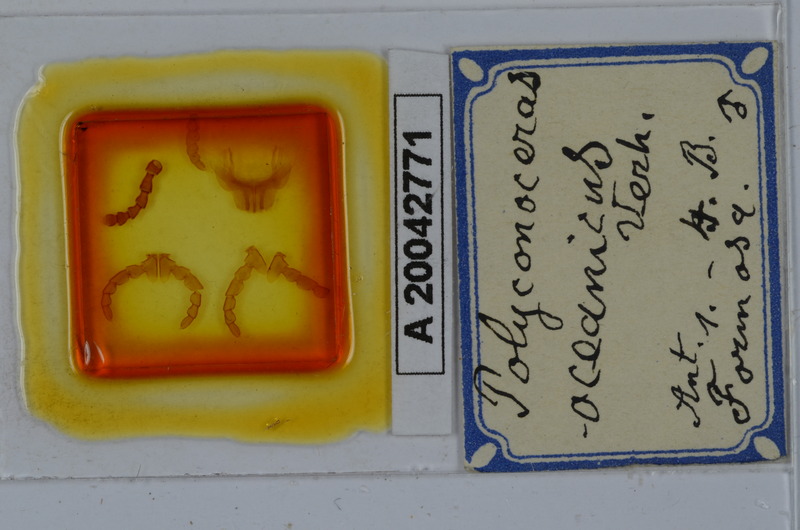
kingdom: Animalia
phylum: Arthropoda
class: Diplopoda
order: Spirobolida
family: Rhinocricidae
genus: Salpidobolus
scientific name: Salpidobolus oceanicus
